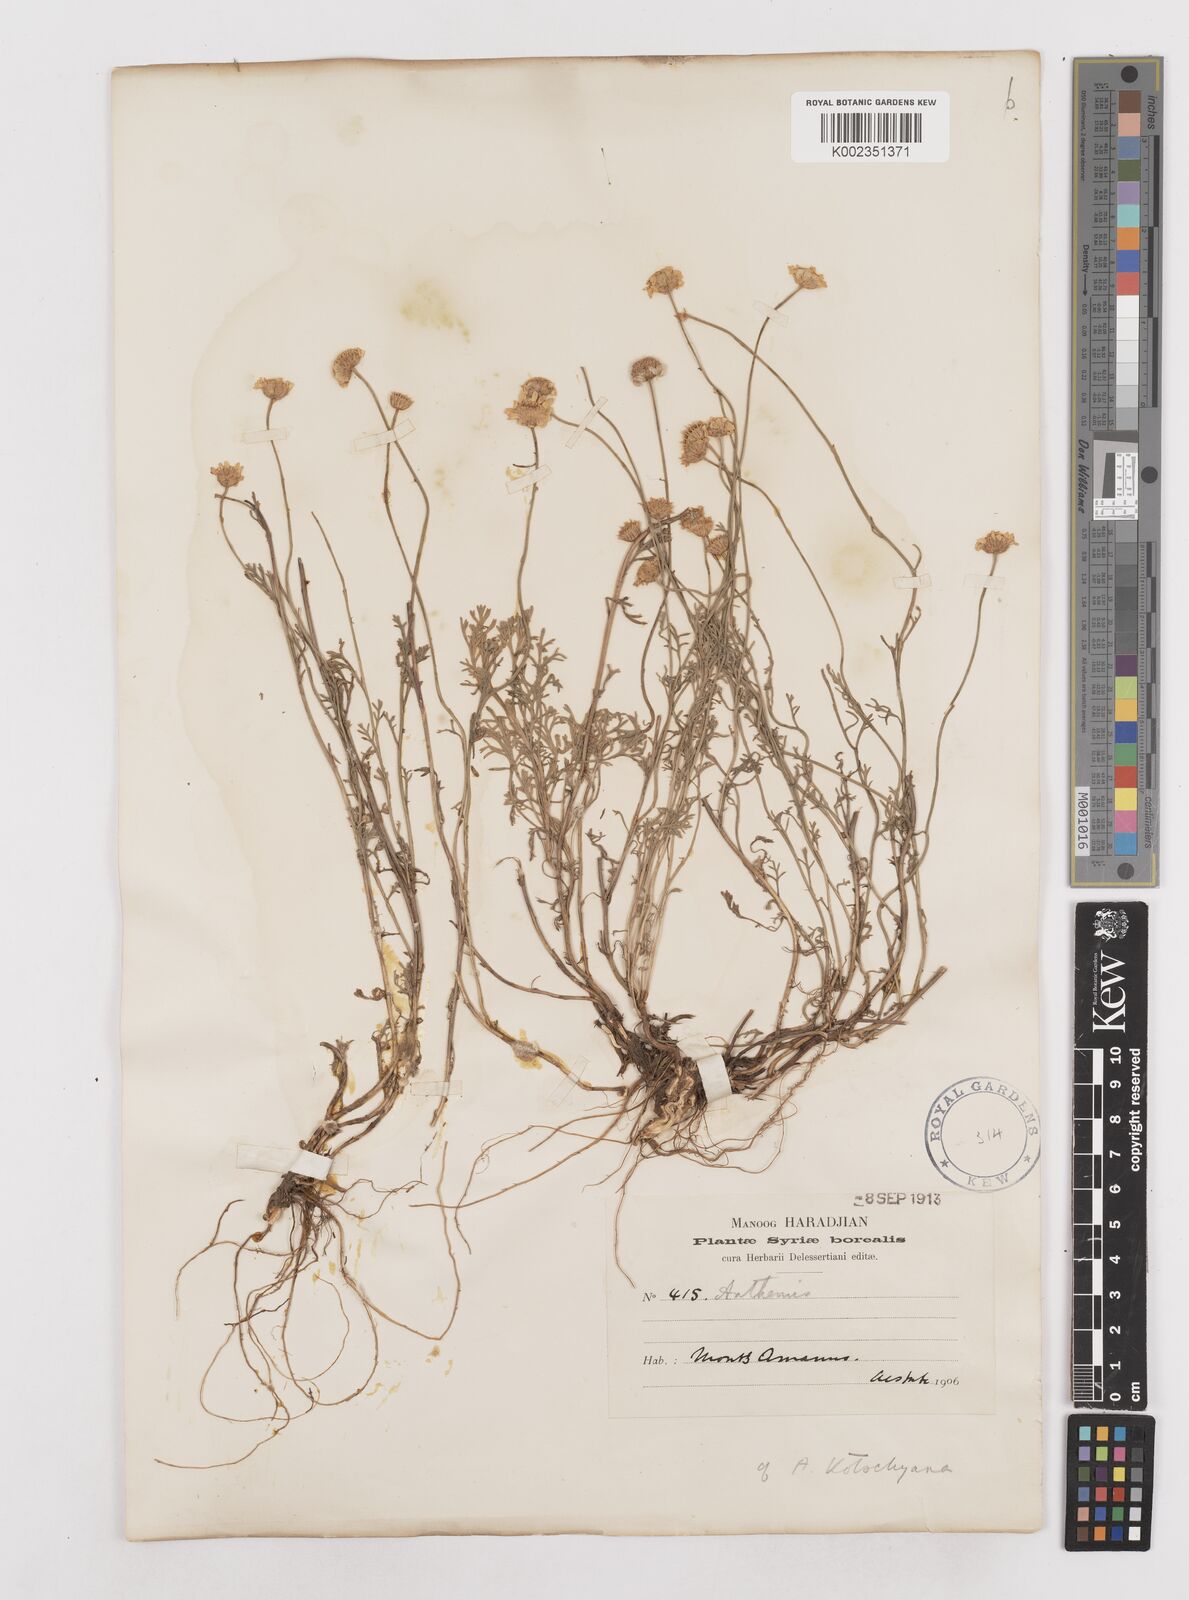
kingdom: Plantae
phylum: Tracheophyta
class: Magnoliopsida
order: Asterales
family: Asteraceae
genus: Anthemis
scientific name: Anthemis kotschyana
